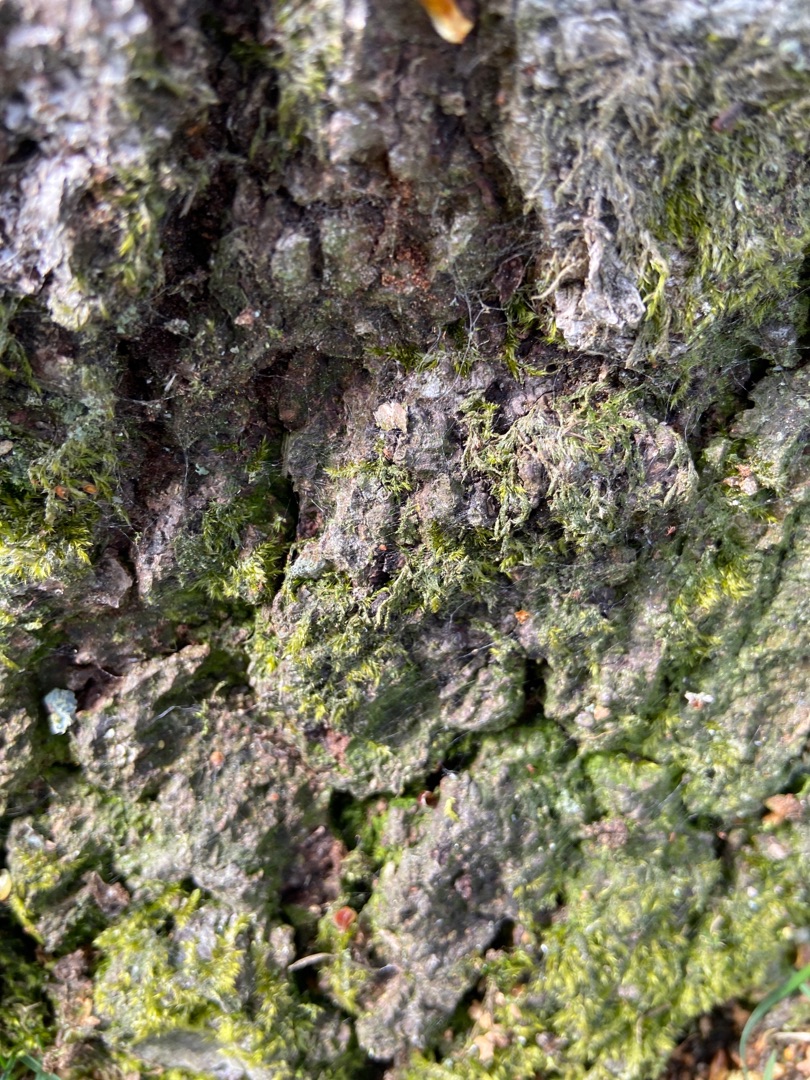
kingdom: Plantae
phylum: Bryophyta
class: Bryopsida
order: Hypnales
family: Hypnaceae
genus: Hypnum
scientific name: Hypnum
